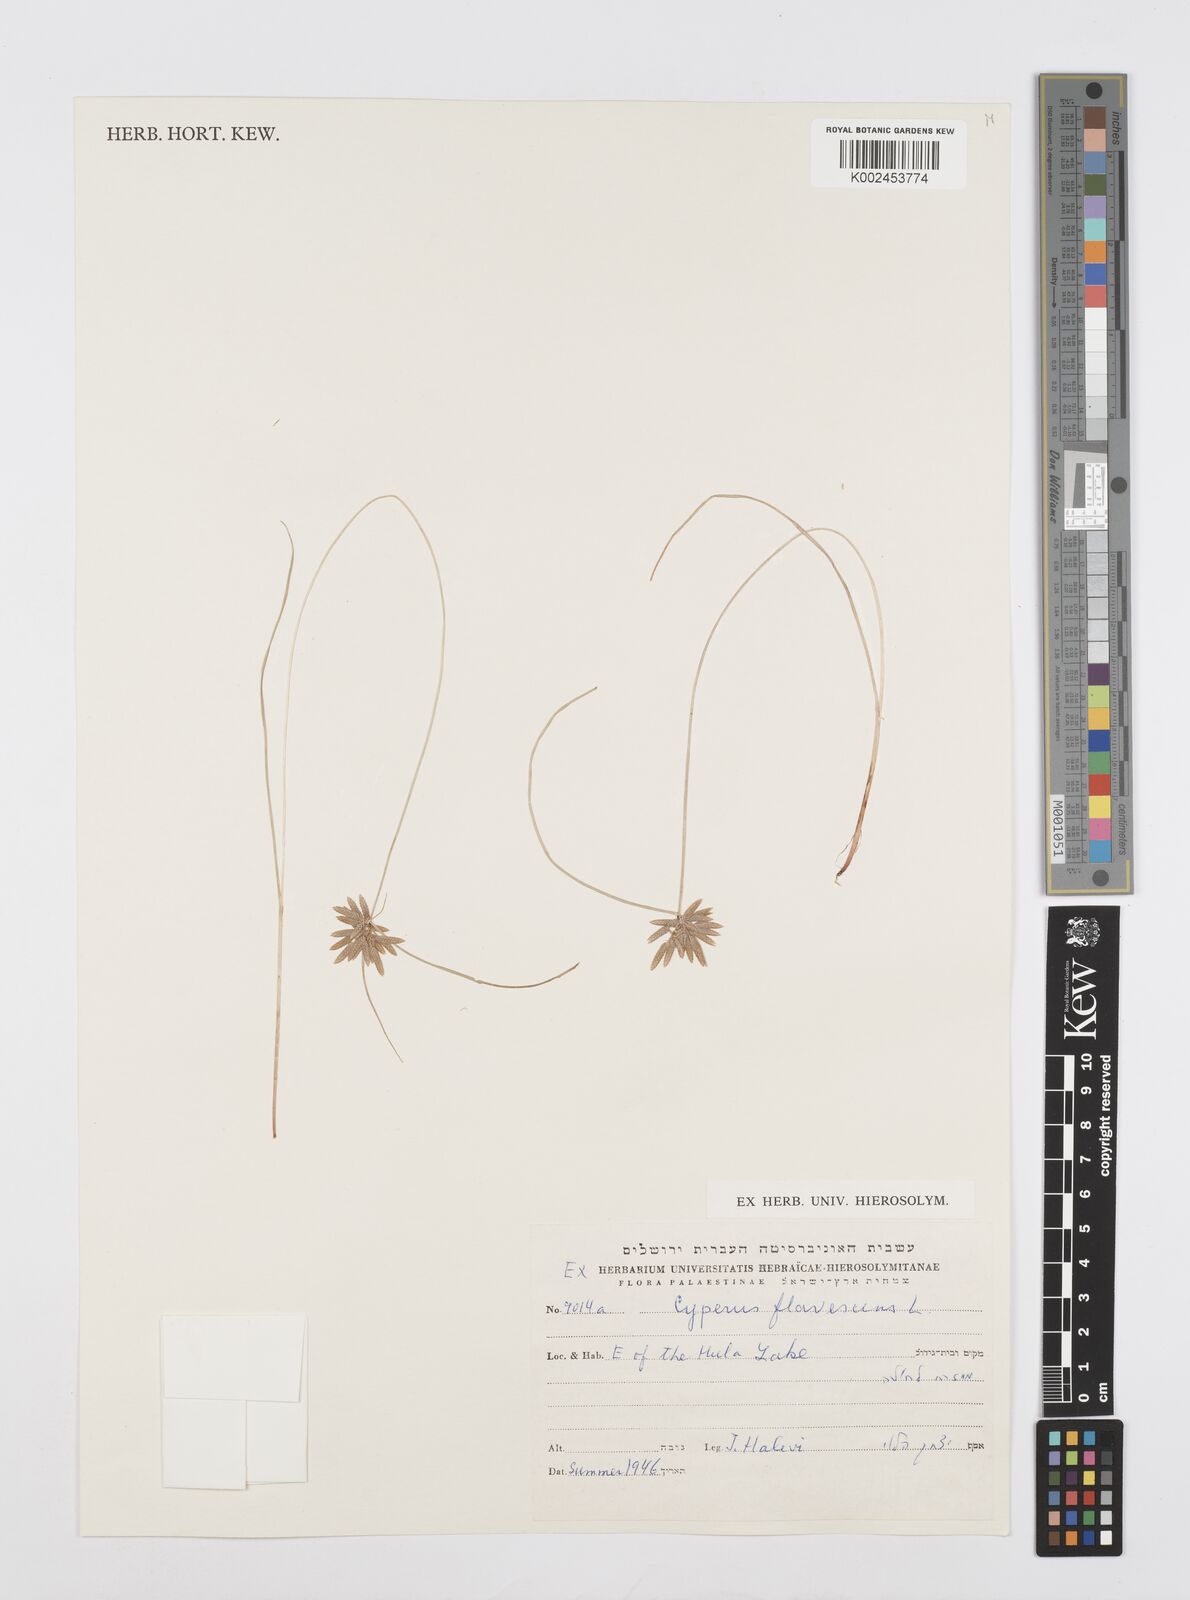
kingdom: Plantae
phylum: Tracheophyta
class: Liliopsida
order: Poales
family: Cyperaceae
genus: Cyperus
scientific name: Cyperus flavescens
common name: Yellow galingale
